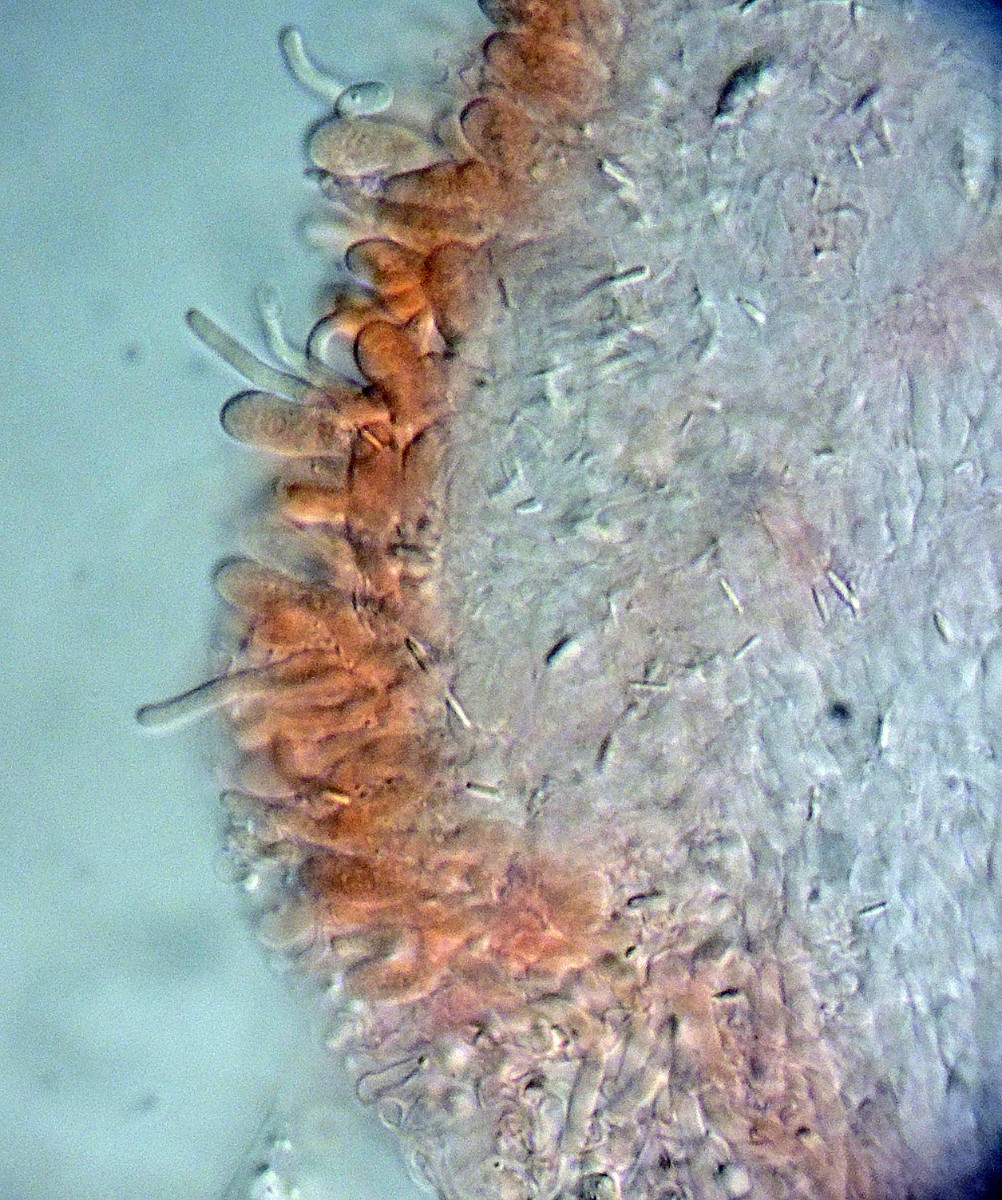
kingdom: Fungi
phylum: Basidiomycota
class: Agaricomycetes
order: Polyporales
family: Irpicaceae
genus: Resiniporus
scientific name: Resiniporus resinascens
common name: trist pastelporesvamp
